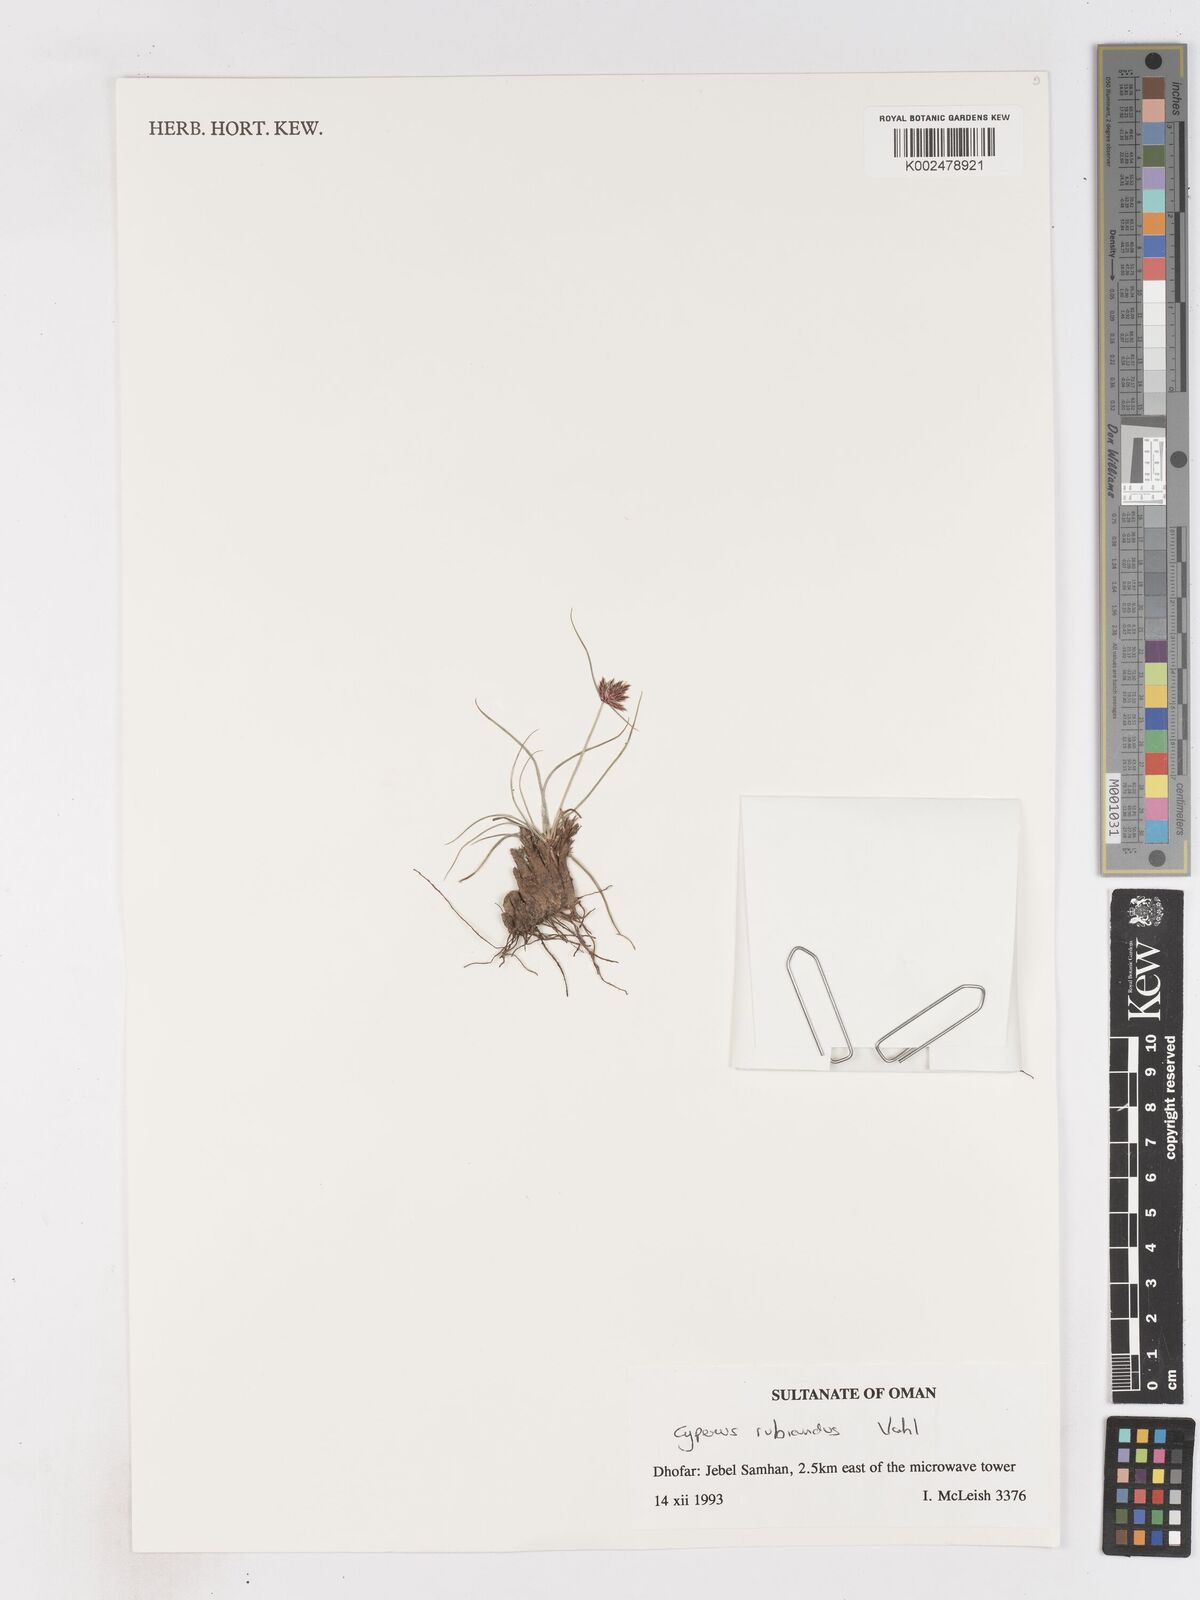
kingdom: Plantae
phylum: Tracheophyta
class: Liliopsida
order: Poales
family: Cyperaceae
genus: Cyperus
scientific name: Cyperus wissmannii
